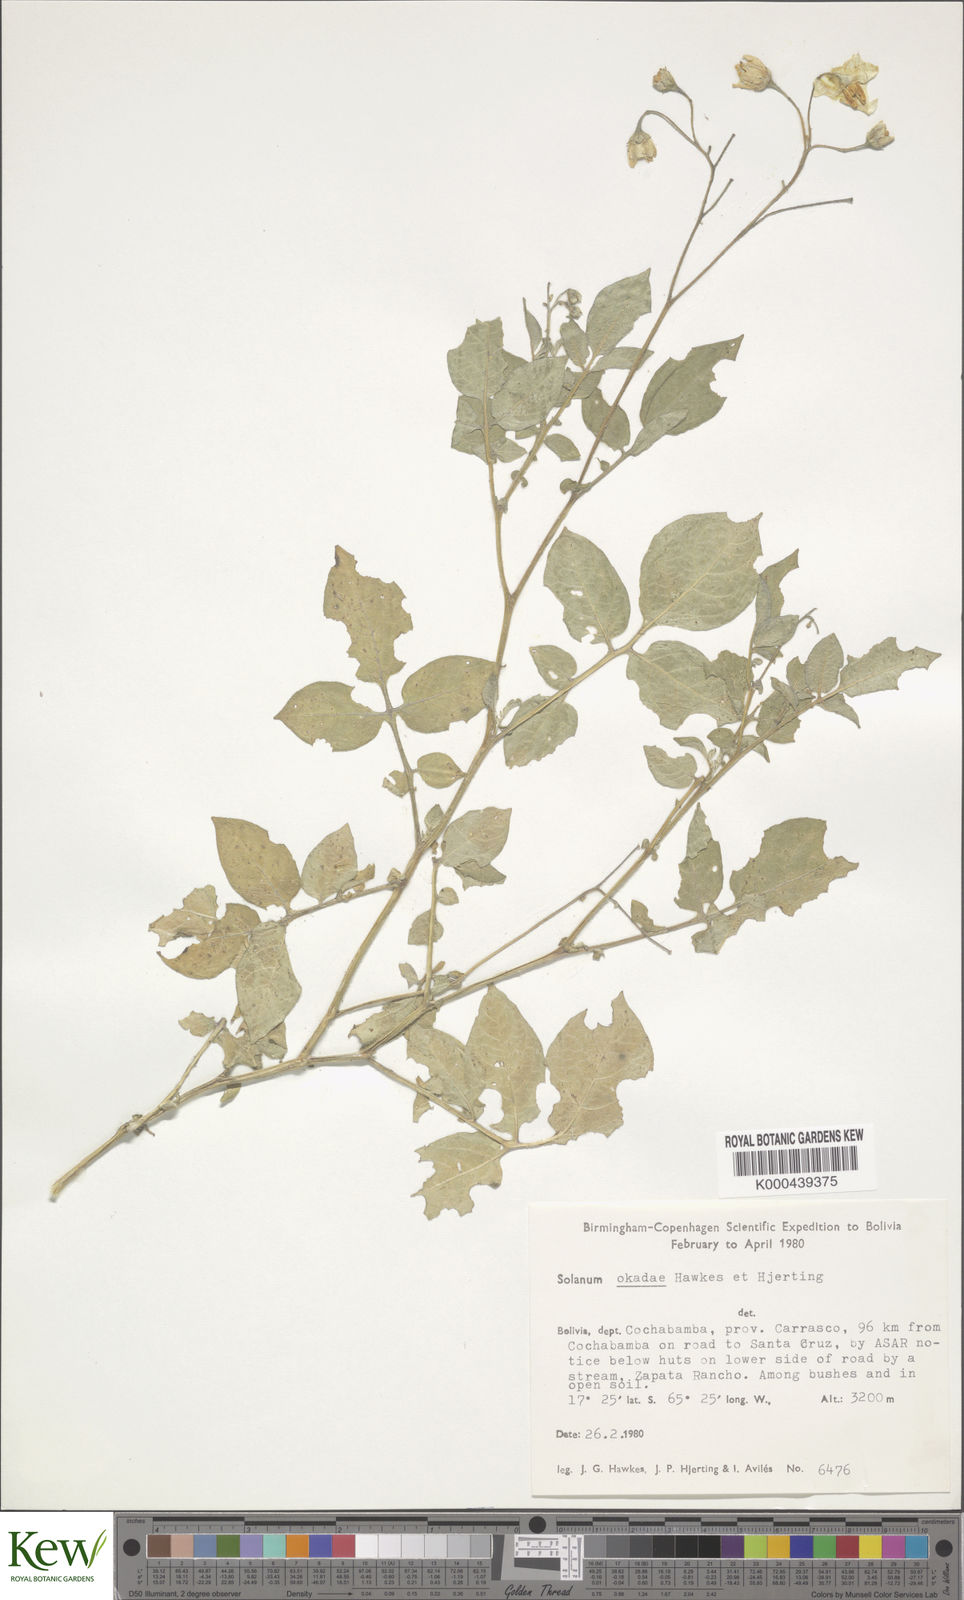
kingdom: Plantae
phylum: Tracheophyta
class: Magnoliopsida
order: Solanales
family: Solanaceae
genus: Solanum
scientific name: Solanum okadae
